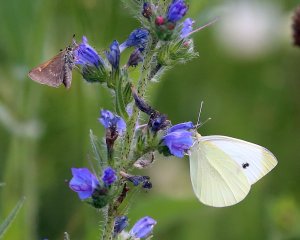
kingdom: Animalia
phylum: Arthropoda
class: Insecta
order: Lepidoptera
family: Pieridae
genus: Pieris
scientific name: Pieris rapae
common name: Cabbage White
